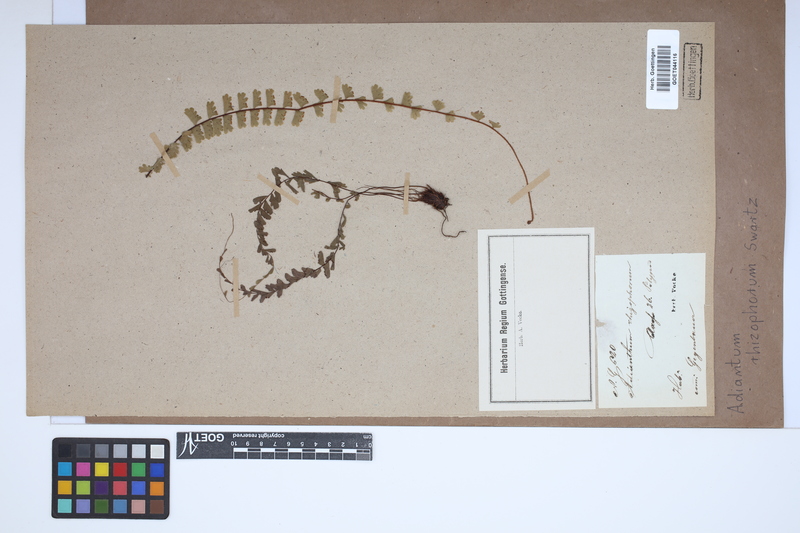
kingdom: Plantae
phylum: Tracheophyta
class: Polypodiopsida
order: Polypodiales
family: Pteridaceae
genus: Adiantum
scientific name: Adiantum rhizophorum
